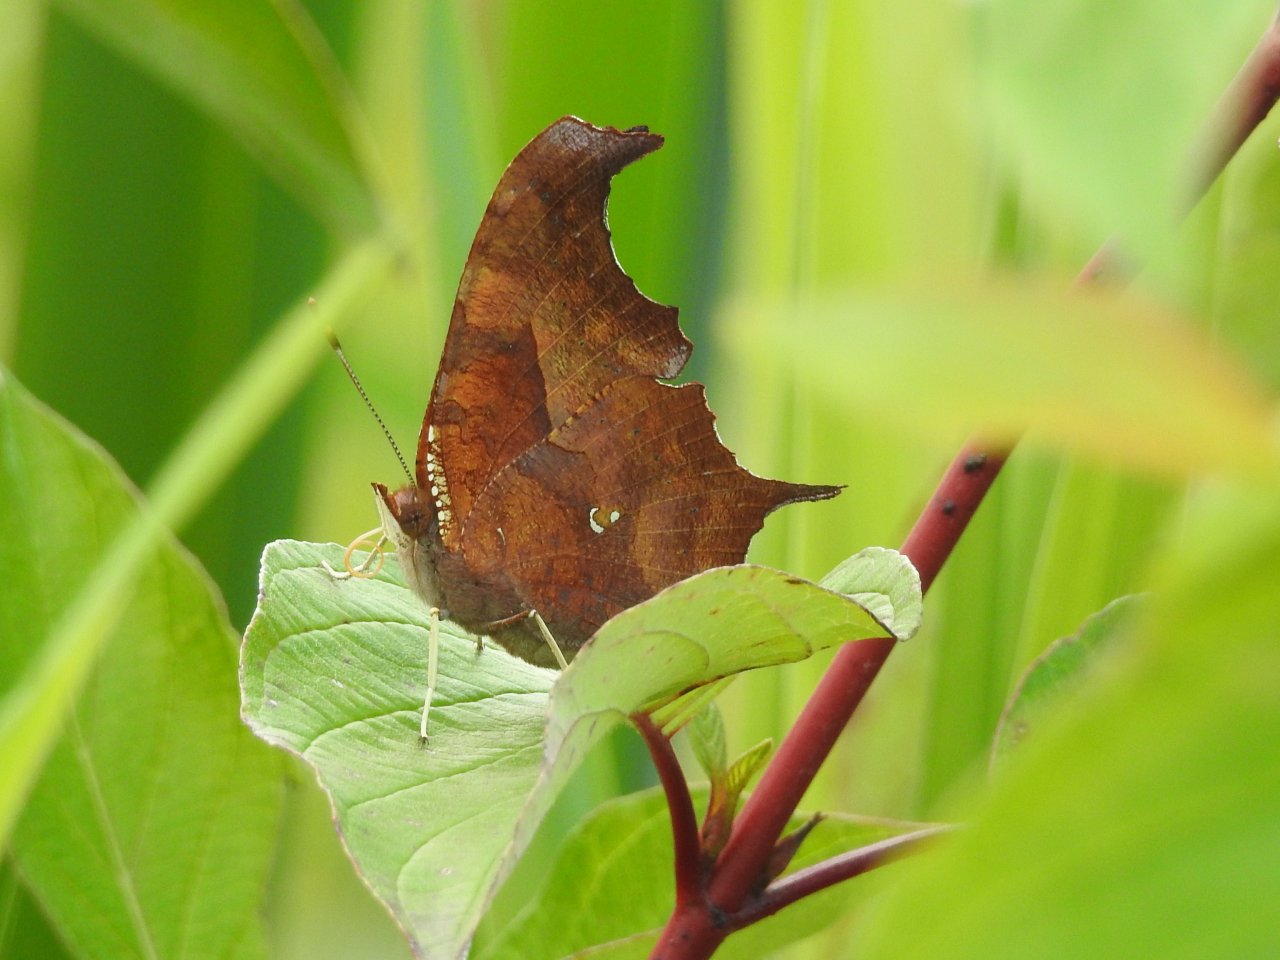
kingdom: Animalia
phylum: Arthropoda
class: Insecta
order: Lepidoptera
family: Nymphalidae
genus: Polygonia
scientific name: Polygonia interrogationis
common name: Question Mark
